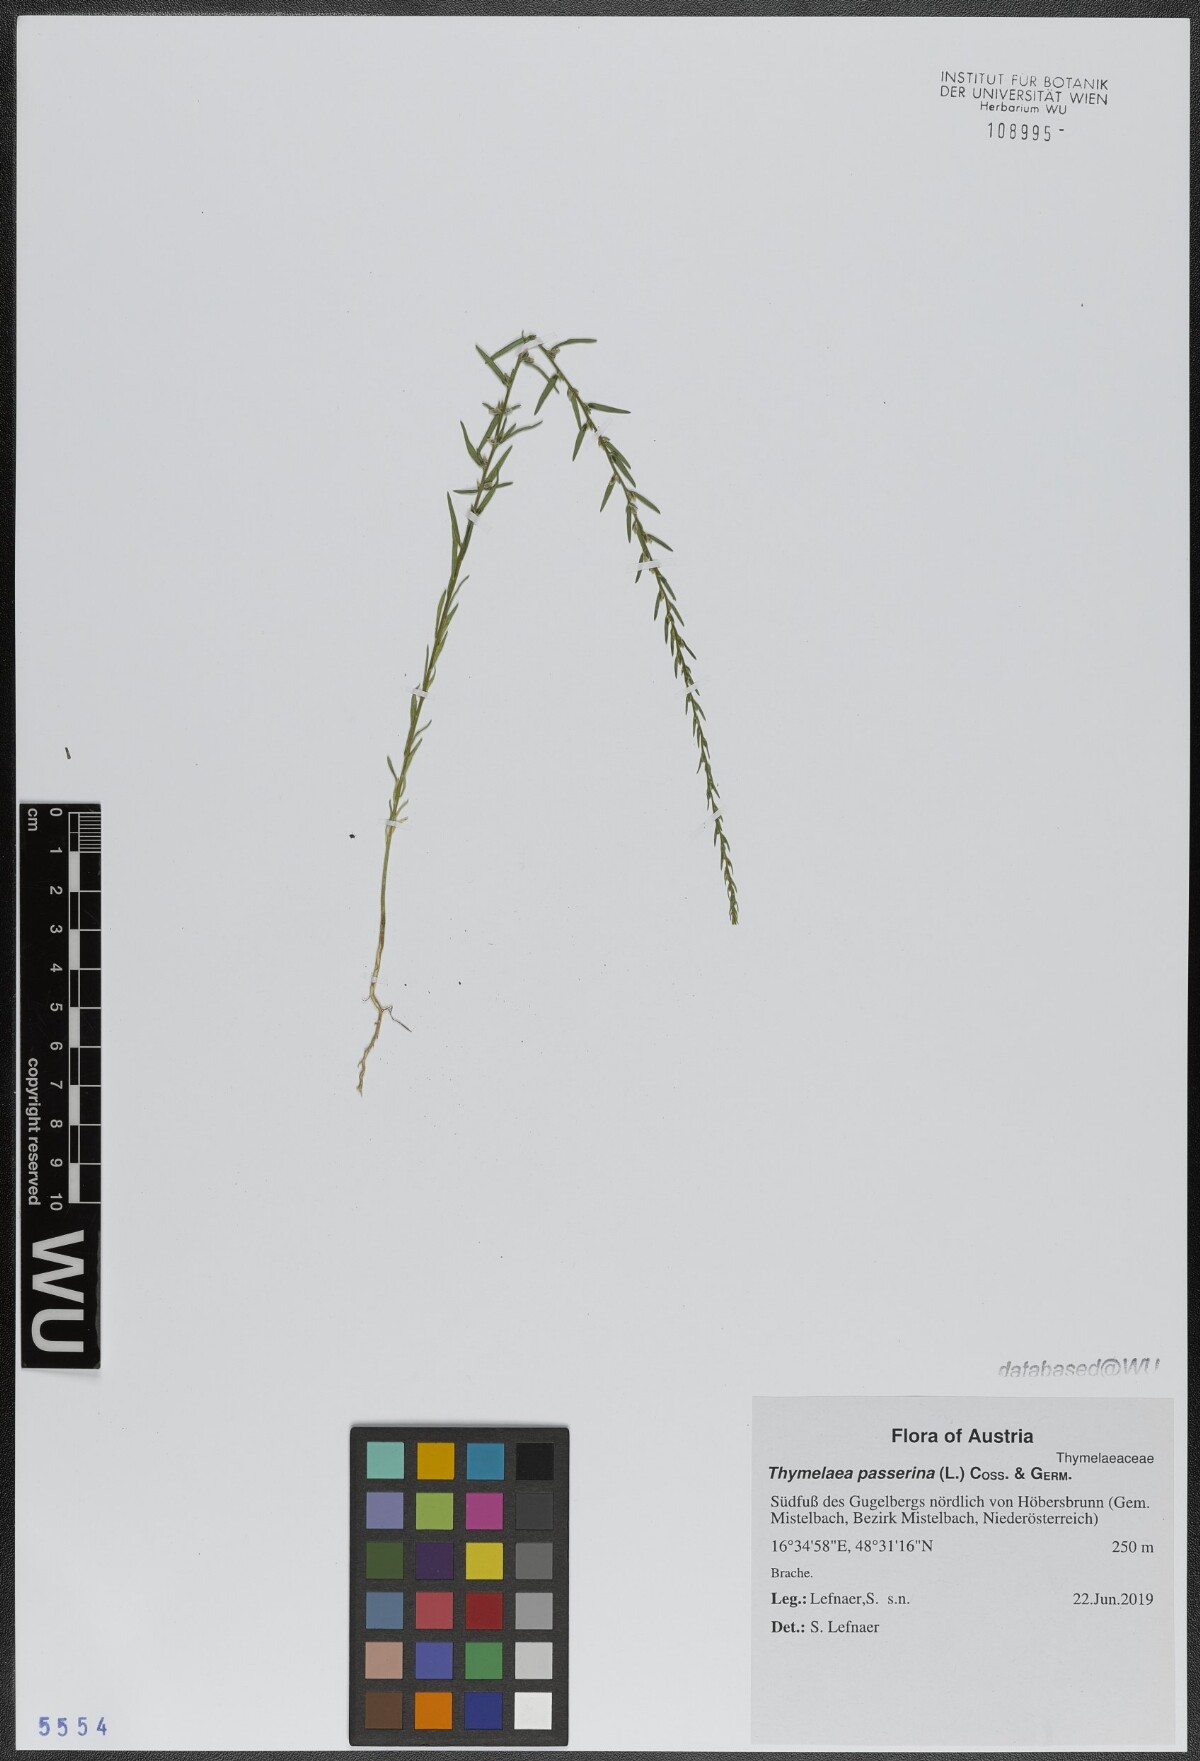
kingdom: Plantae
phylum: Tracheophyta
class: Magnoliopsida
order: Malvales
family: Thymelaeaceae
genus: Thymelaea
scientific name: Thymelaea passerina
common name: Annual thymelaea
